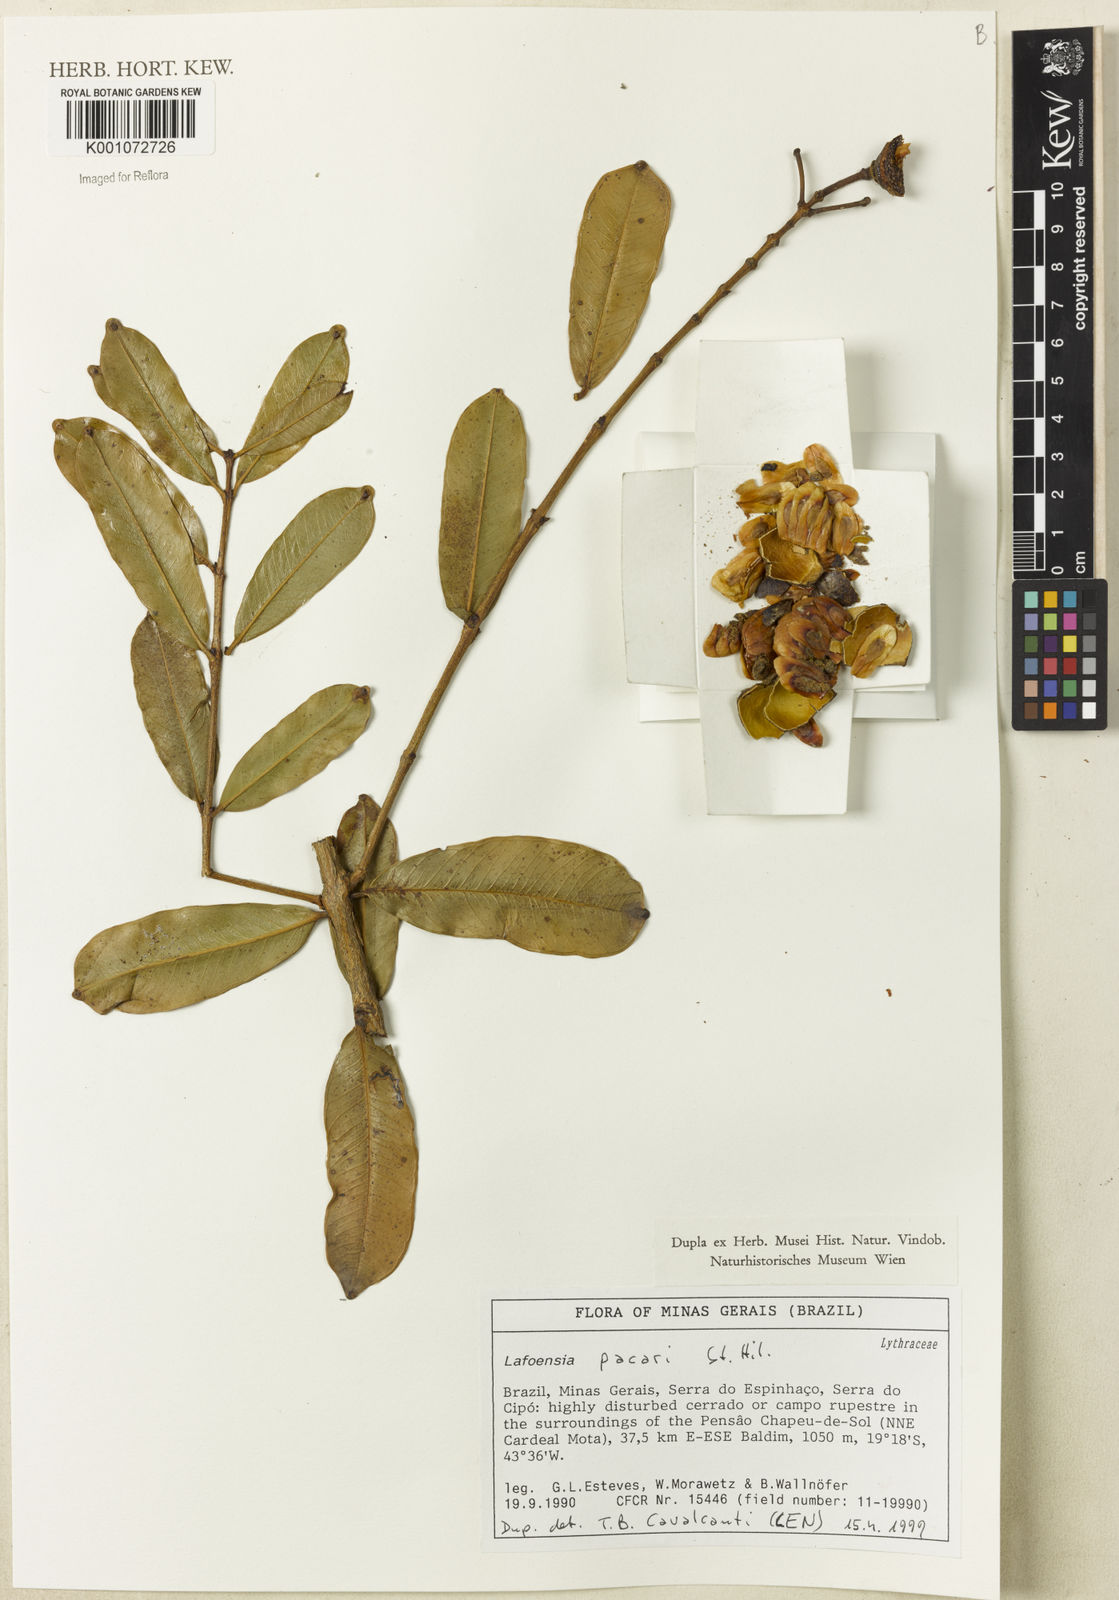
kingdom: Plantae
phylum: Tracheophyta
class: Magnoliopsida
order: Myrtales
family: Lythraceae
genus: Lafoensia
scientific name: Lafoensia pacari
